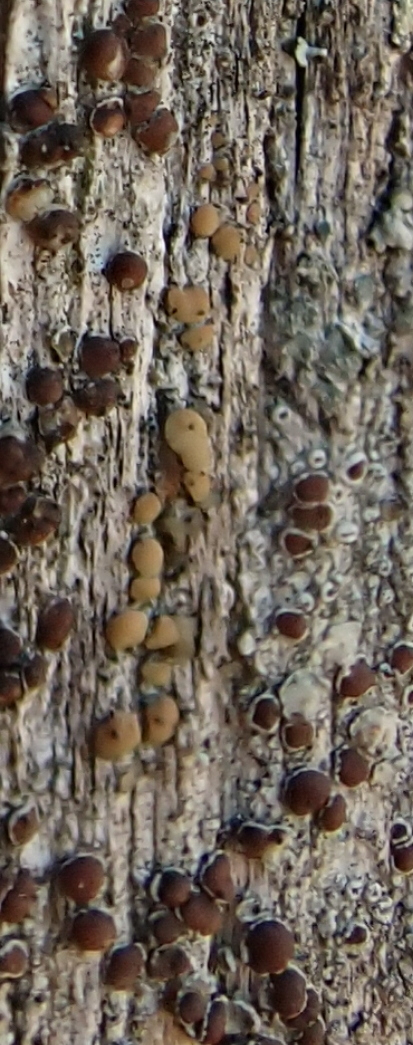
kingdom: Fungi
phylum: Ascomycota
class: Lecanoromycetes
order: Lecanorales
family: Lecanoraceae
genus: Lecanora
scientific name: Lecanora symmicta
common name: kvist-kantskivelav
